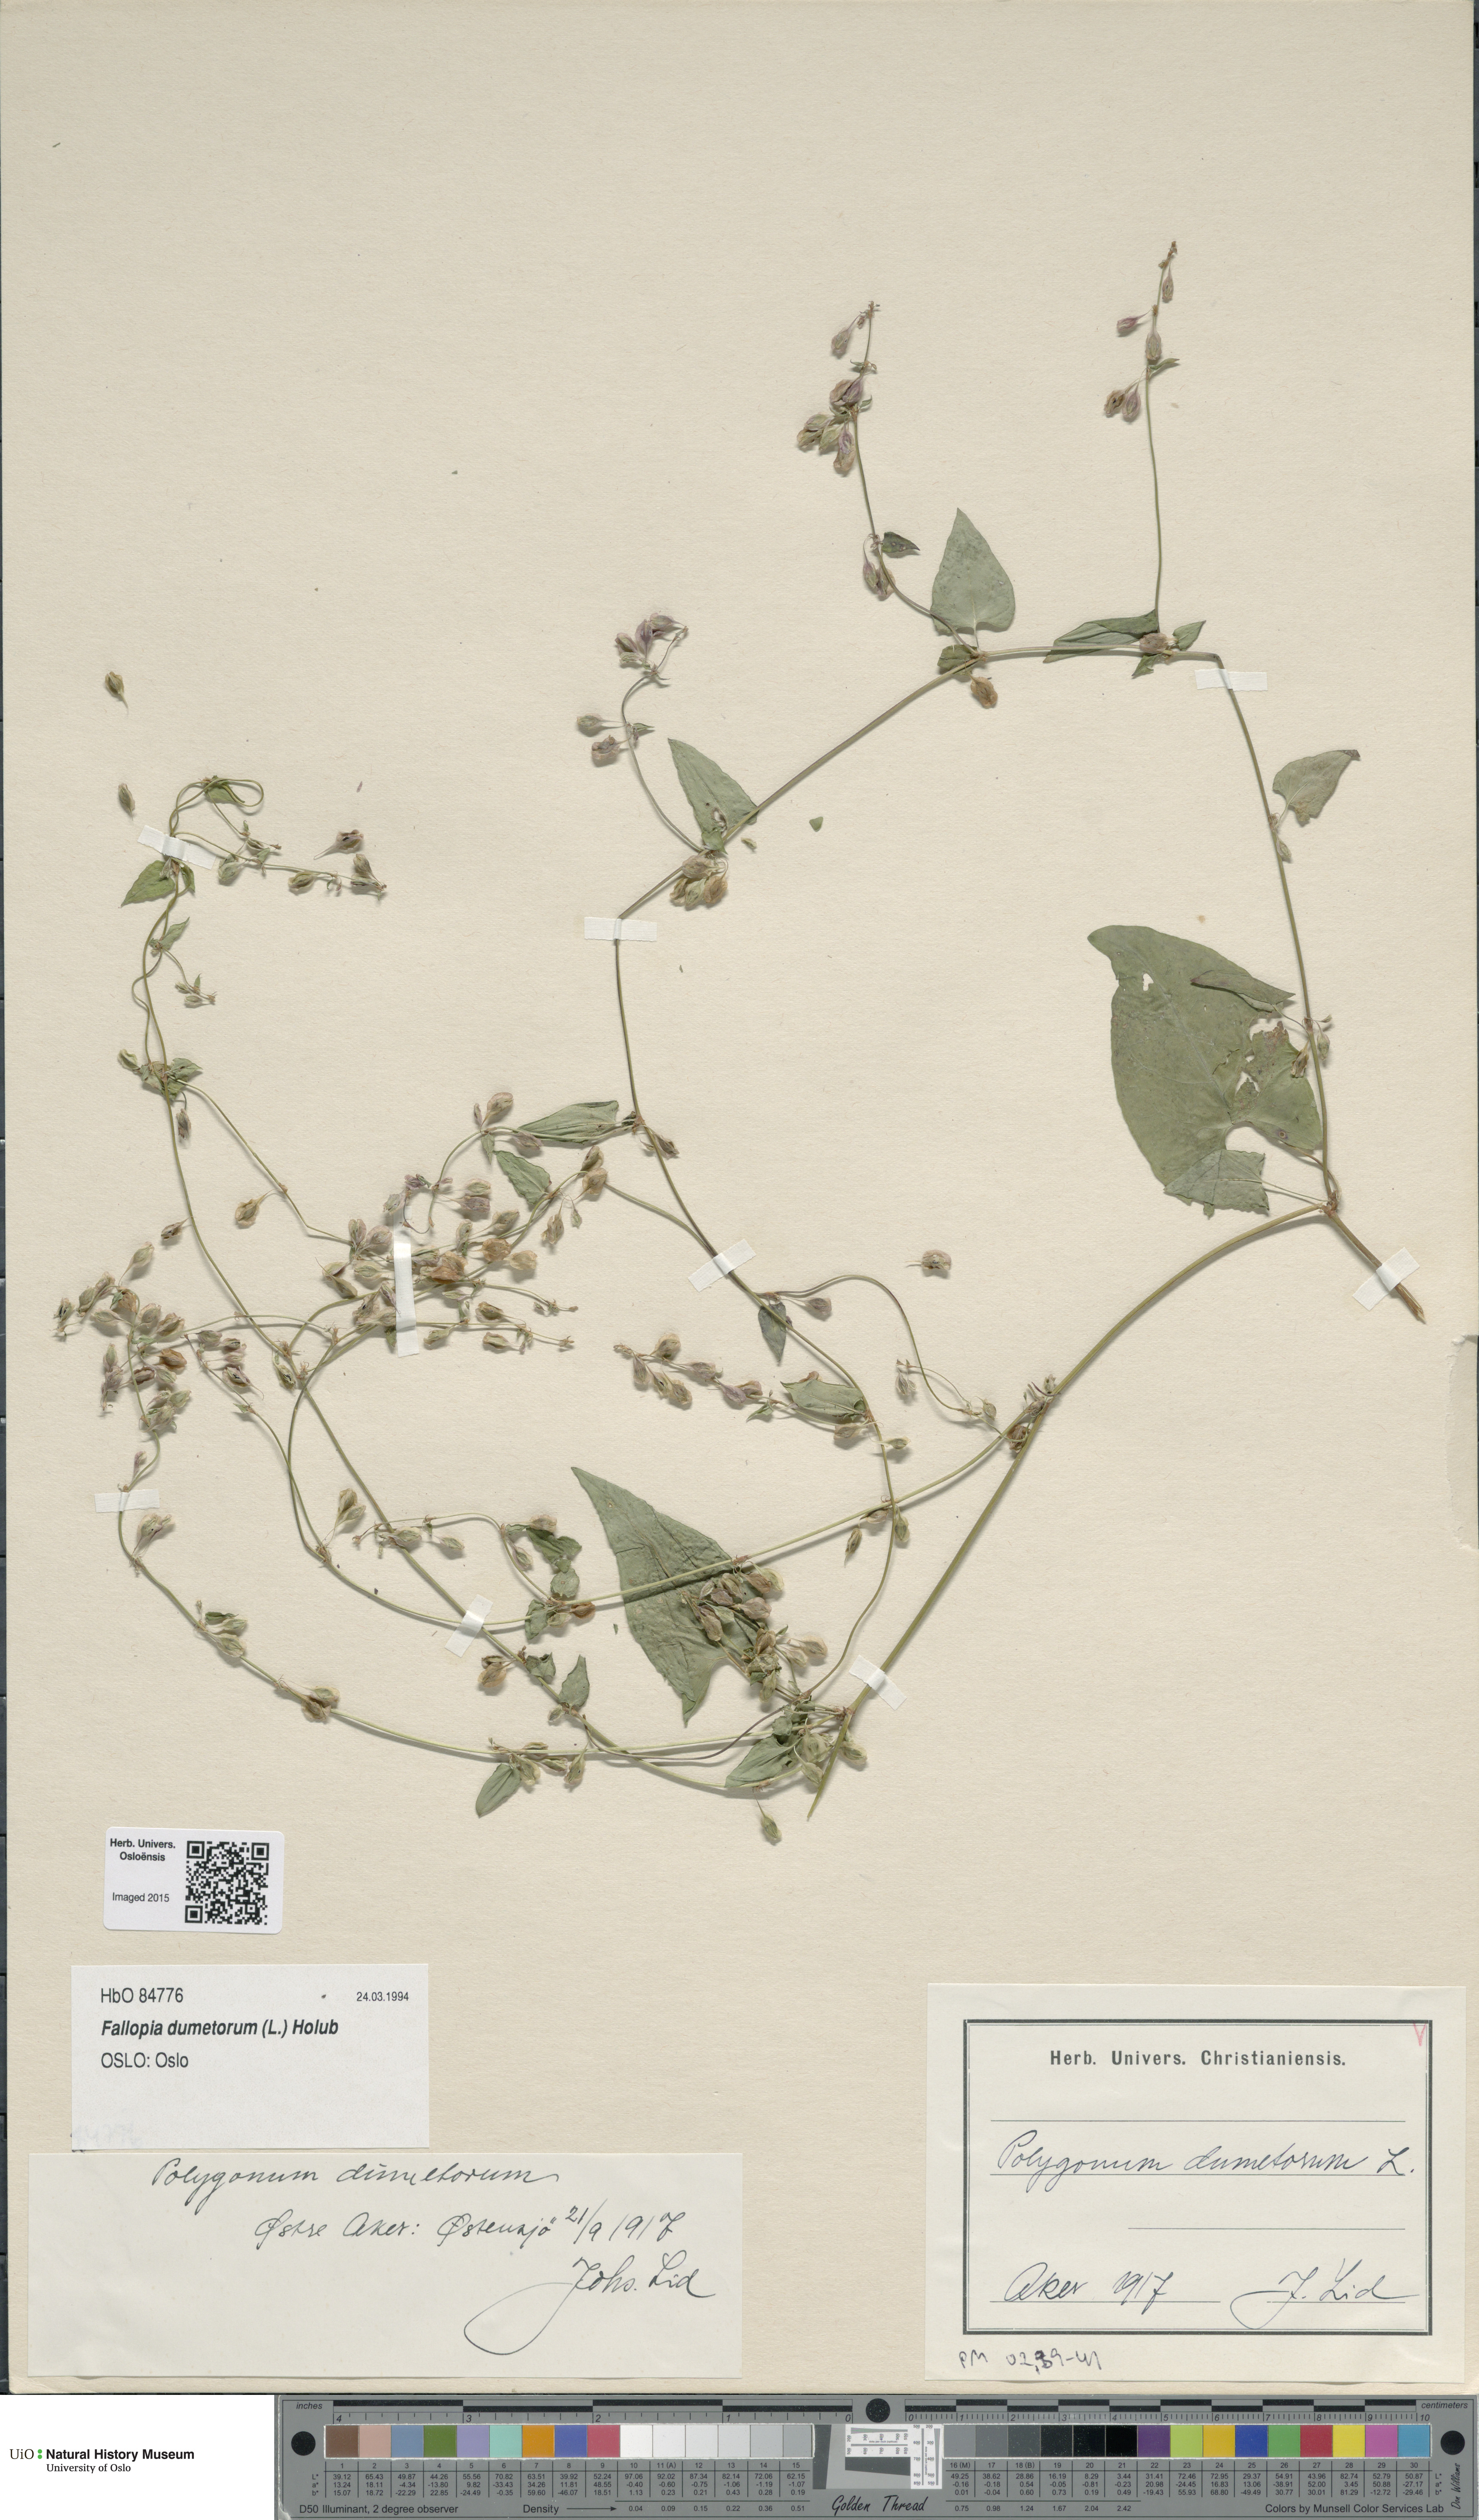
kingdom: Plantae
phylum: Tracheophyta
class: Magnoliopsida
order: Caryophyllales
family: Polygonaceae
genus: Fallopia
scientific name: Fallopia dumetorum
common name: Copse-bindweed
